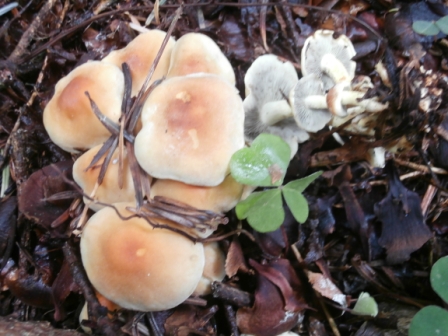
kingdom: Fungi
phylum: Basidiomycota
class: Agaricomycetes
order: Agaricales
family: Strophariaceae
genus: Hypholoma
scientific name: Hypholoma fasciculare
